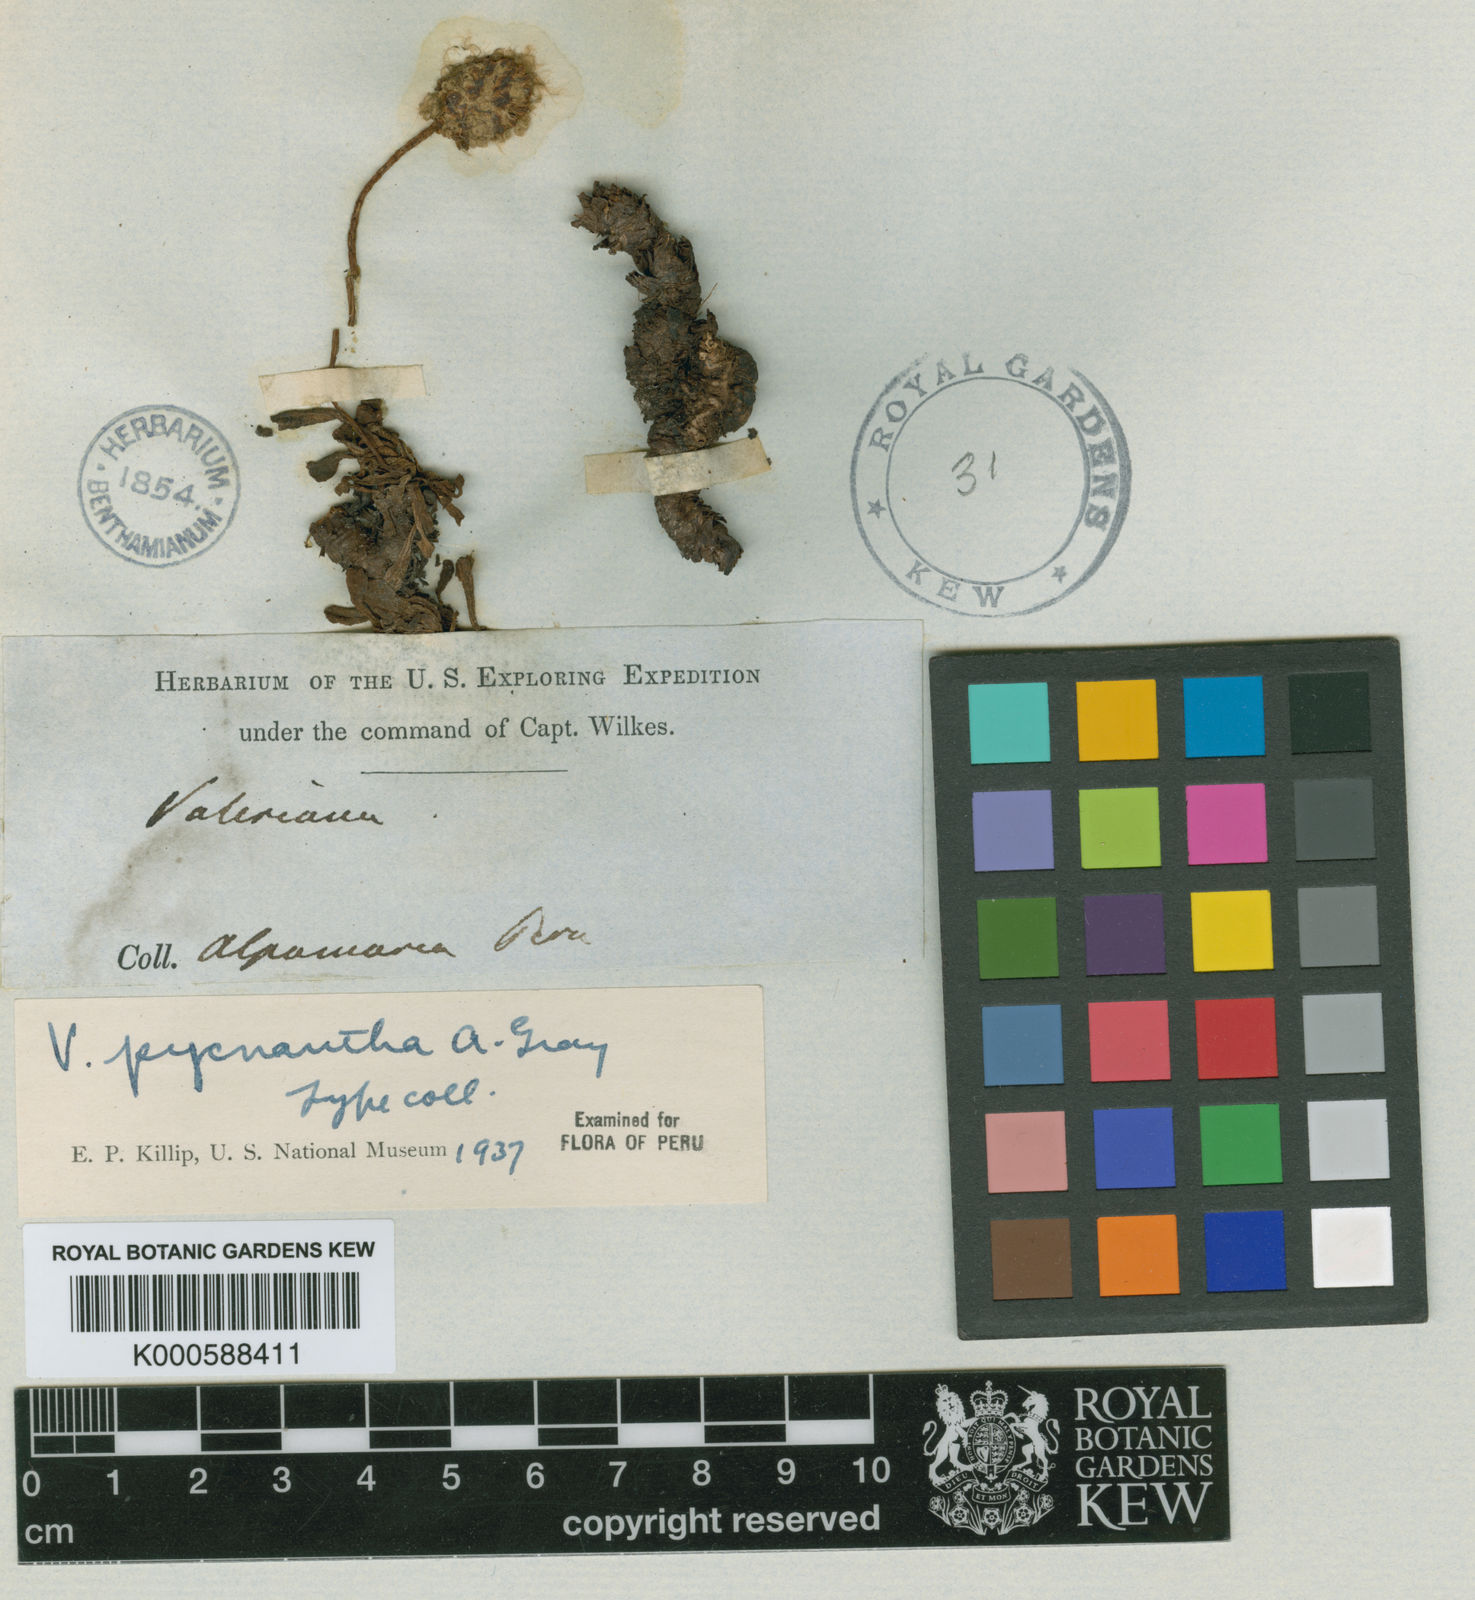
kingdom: Plantae
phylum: Tracheophyta
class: Magnoliopsida
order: Dipsacales
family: Caprifoliaceae
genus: Valeriana
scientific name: Valeriana pycnantha
